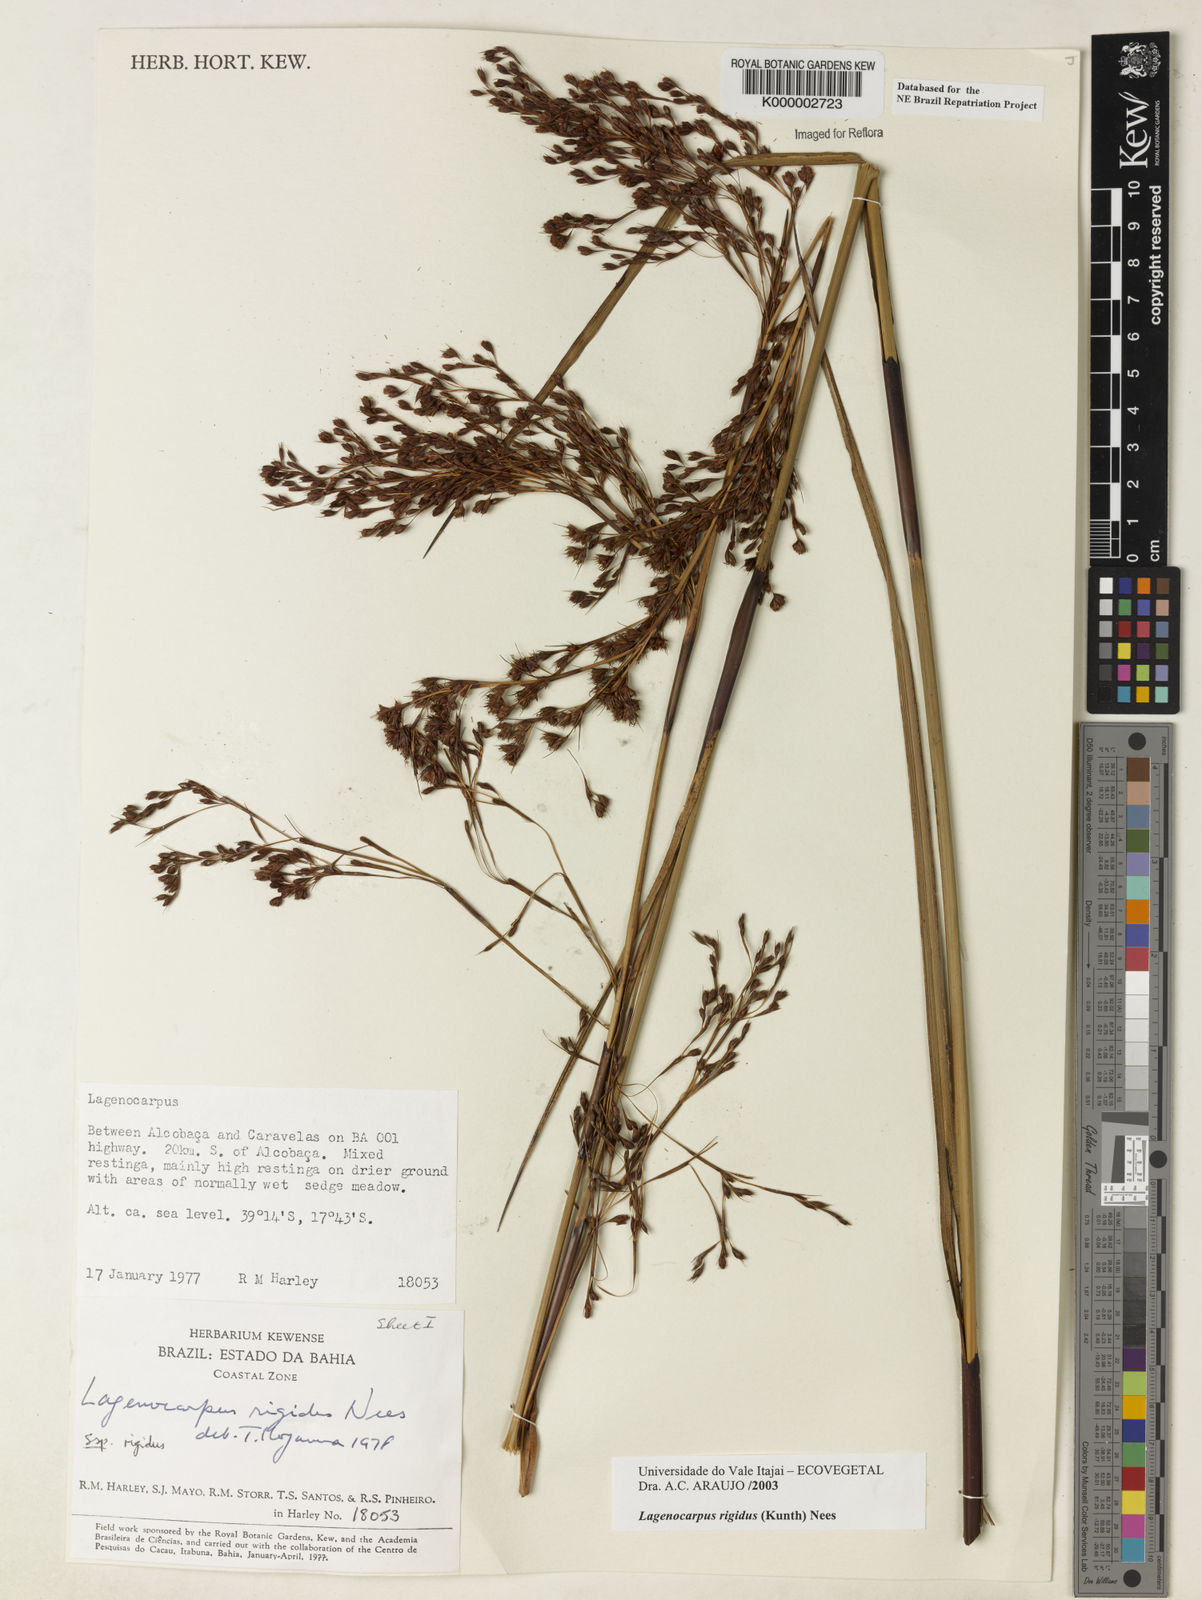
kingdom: Plantae
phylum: Tracheophyta
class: Liliopsida
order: Poales
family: Cyperaceae
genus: Lagenocarpus
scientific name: Lagenocarpus rigidus
